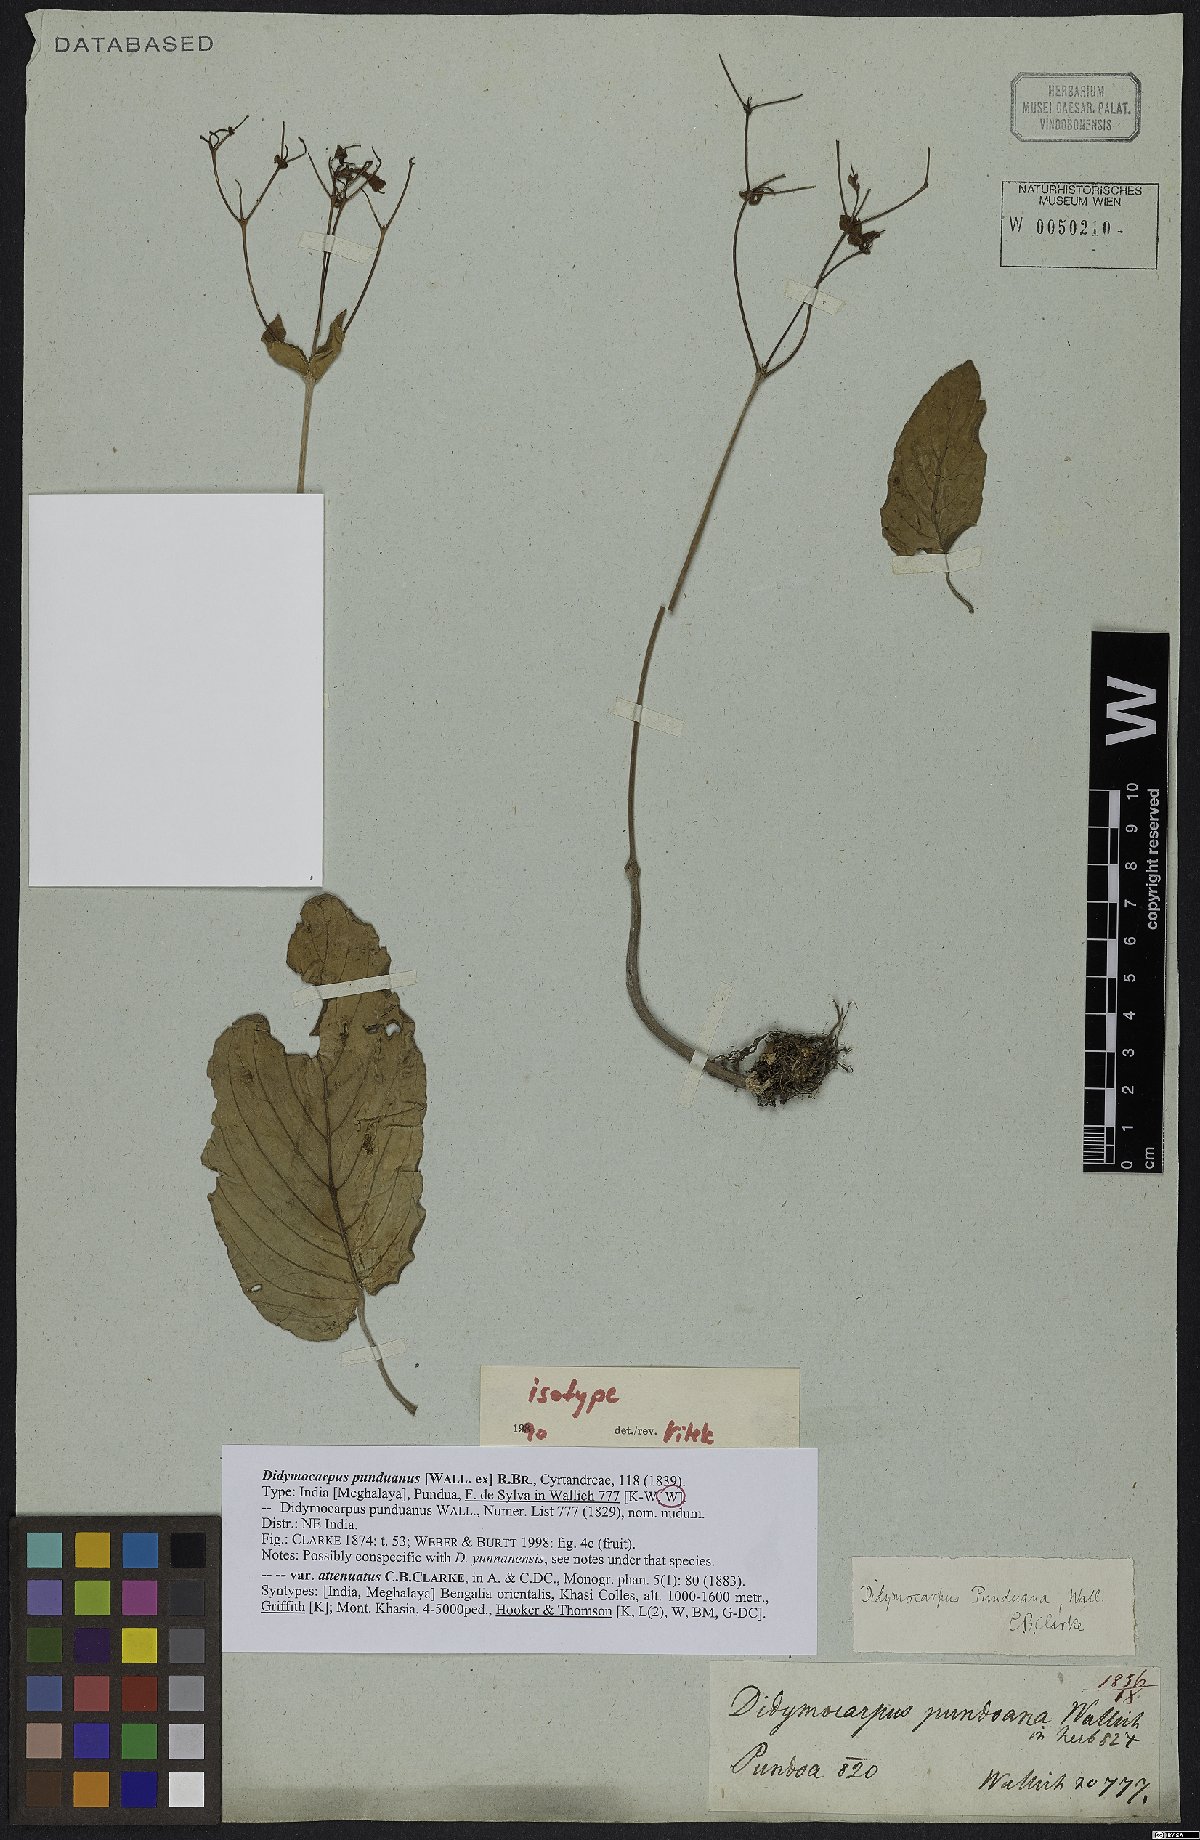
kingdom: Plantae
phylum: Tracheophyta
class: Magnoliopsida
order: Lamiales
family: Gesneriaceae
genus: Didymocarpus
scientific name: Didymocarpus punduanus
